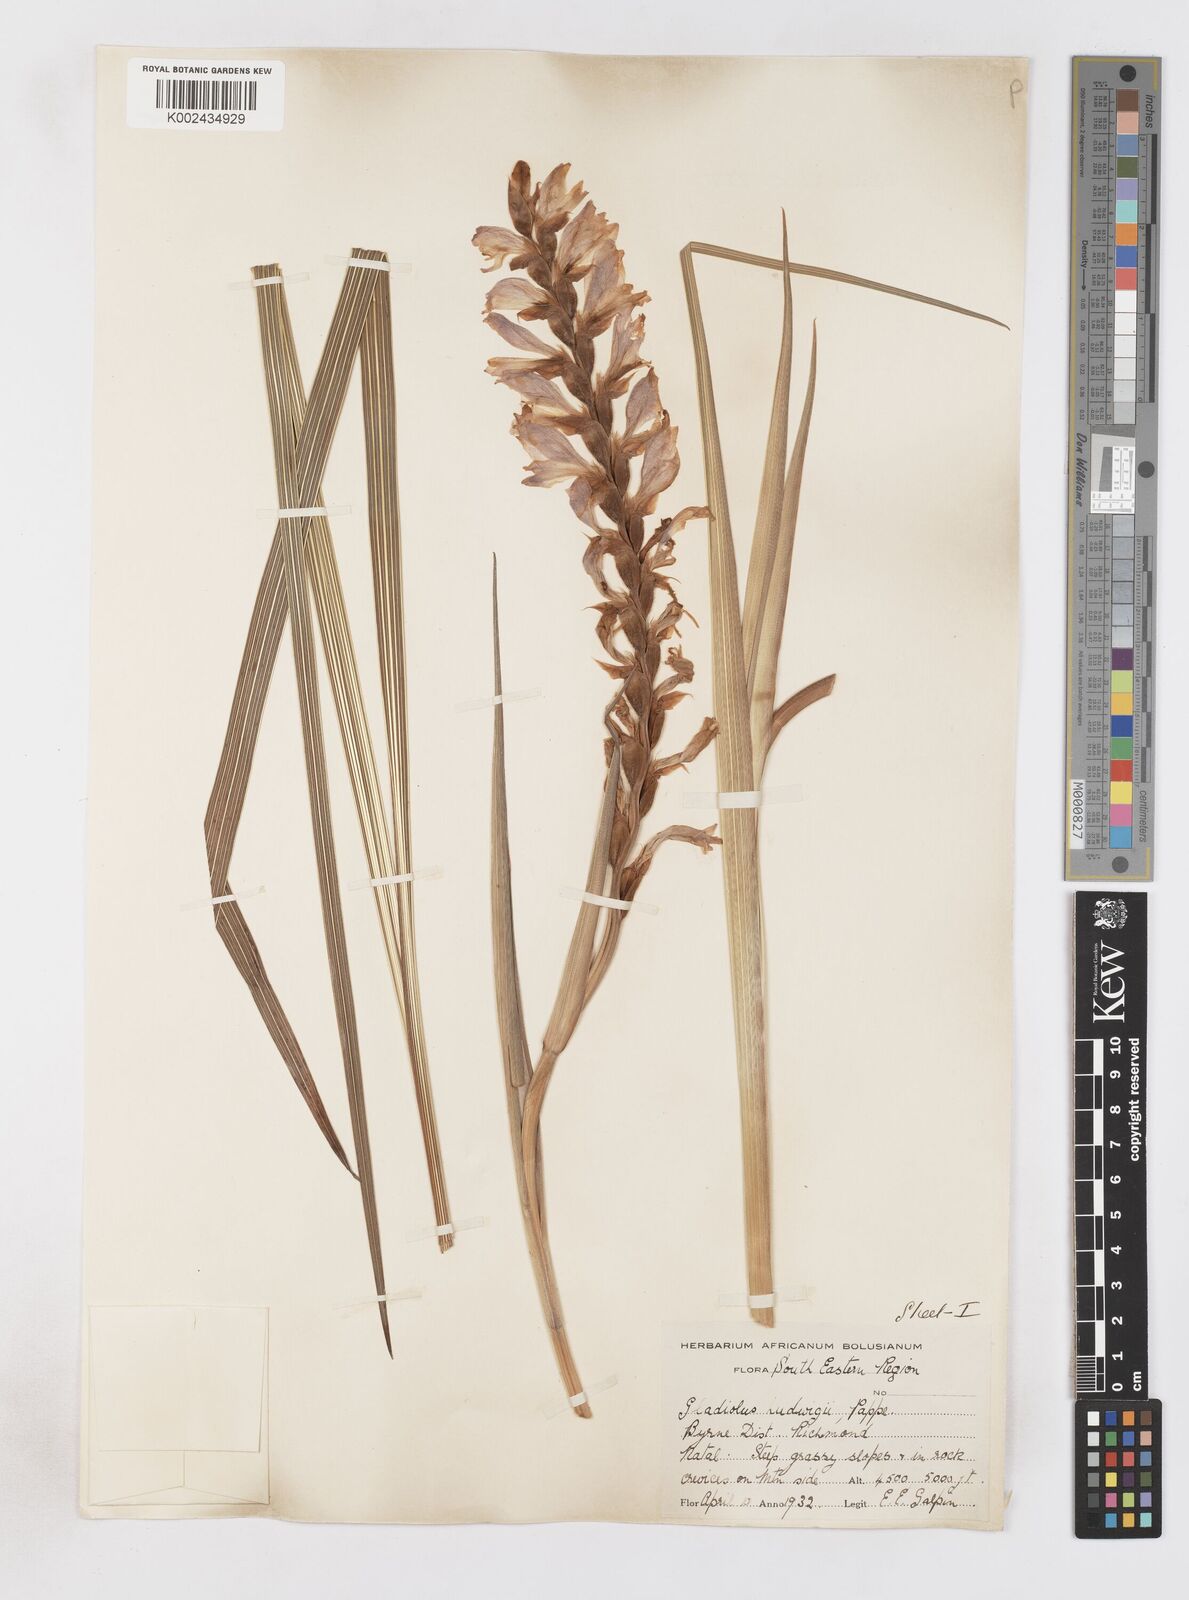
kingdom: Plantae
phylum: Tracheophyta
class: Liliopsida
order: Asparagales
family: Iridaceae
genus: Gladiolus
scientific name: Gladiolus sericeovillosus
